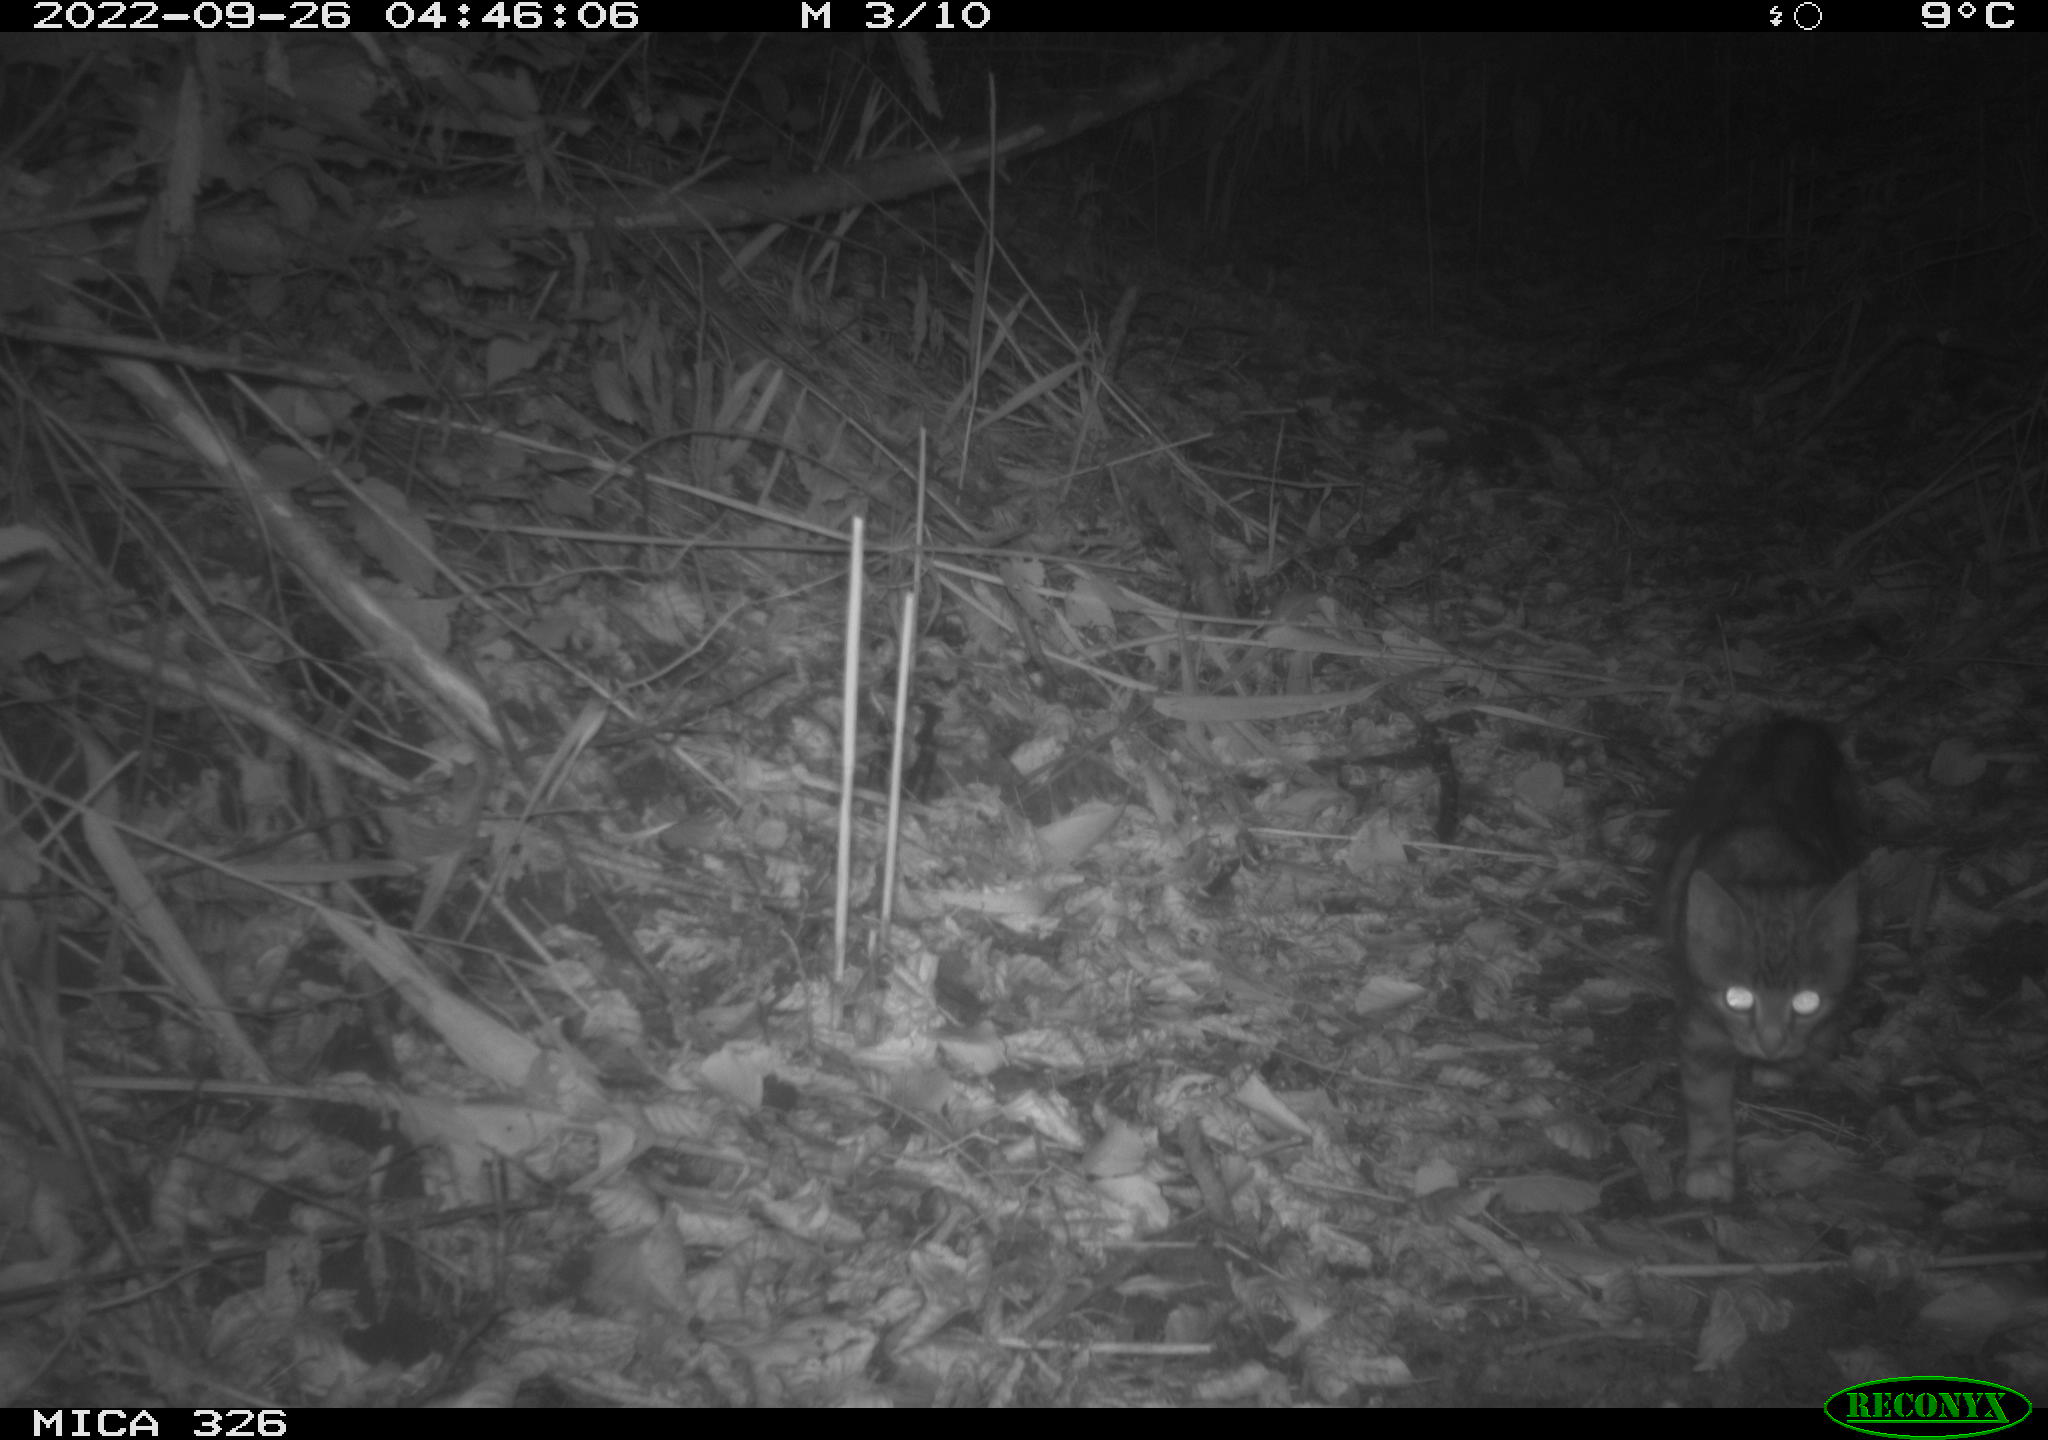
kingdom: Animalia
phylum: Chordata
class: Mammalia
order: Carnivora
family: Felidae
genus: Felis
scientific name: Felis catus
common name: Domestic cat
